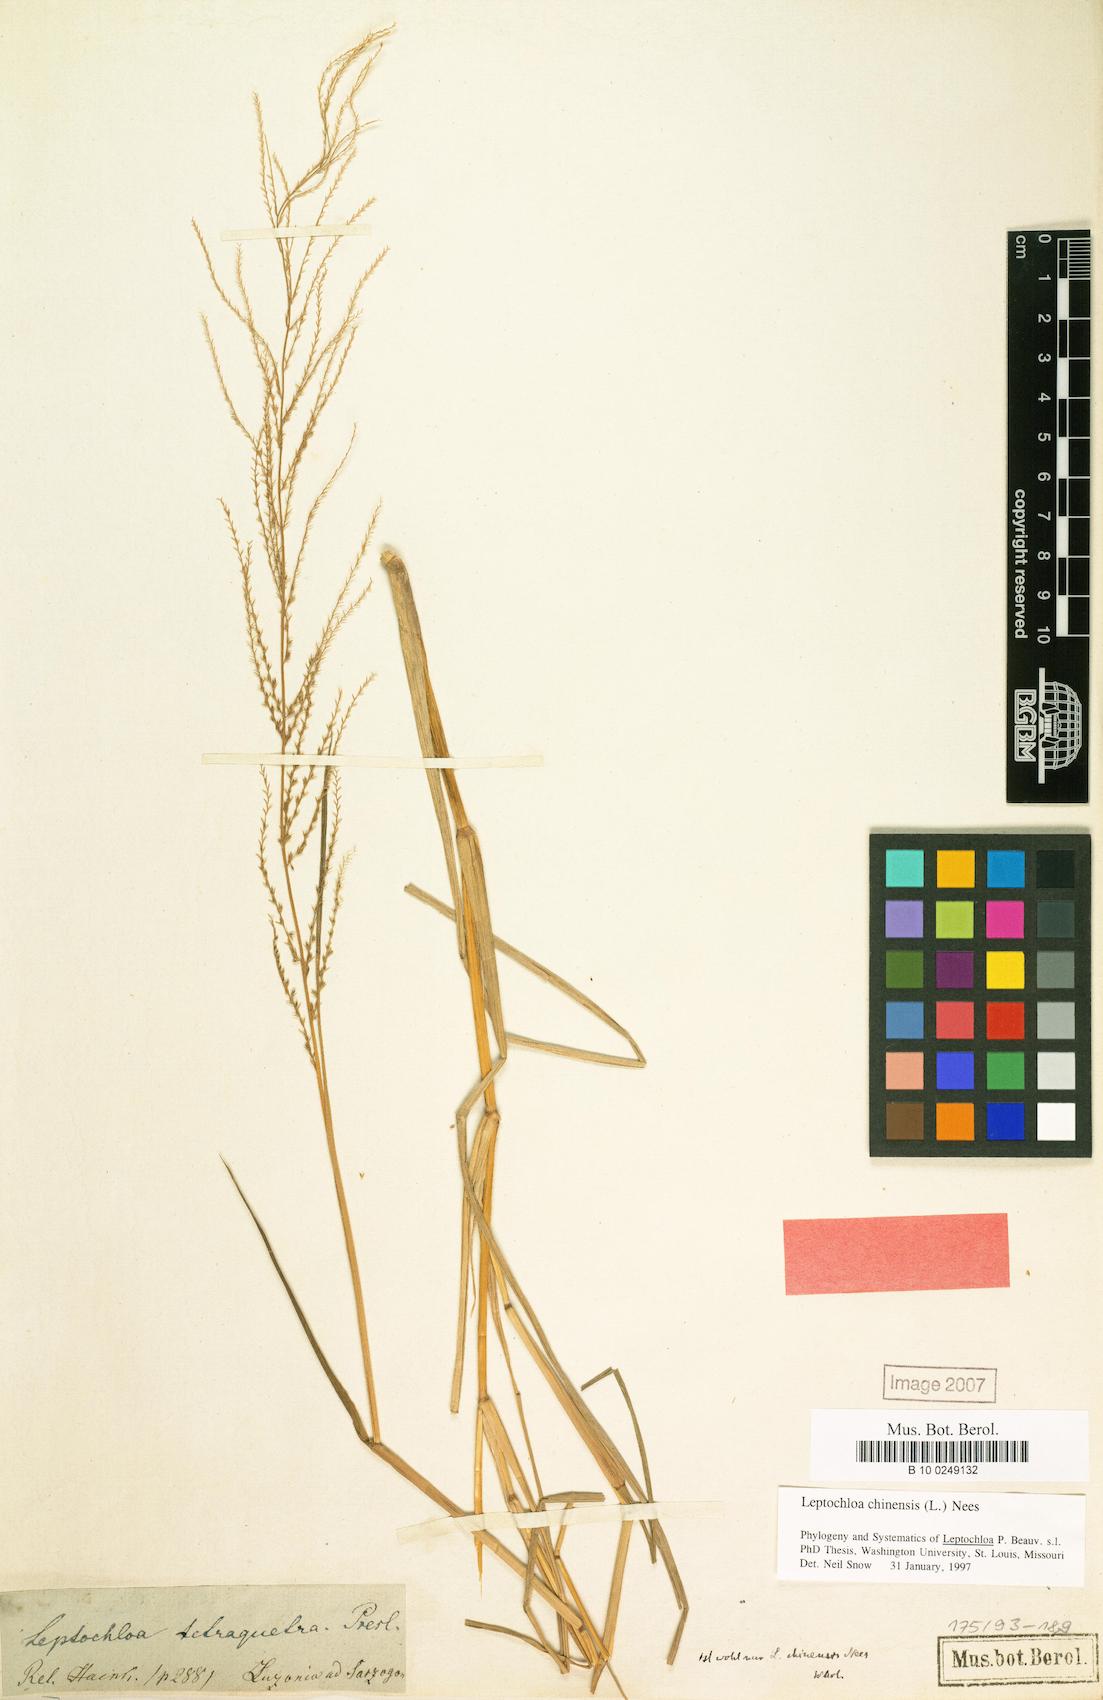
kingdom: Plantae
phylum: Tracheophyta
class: Liliopsida
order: Poales
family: Poaceae
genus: Leptochloa
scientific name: Leptochloa chinensis
